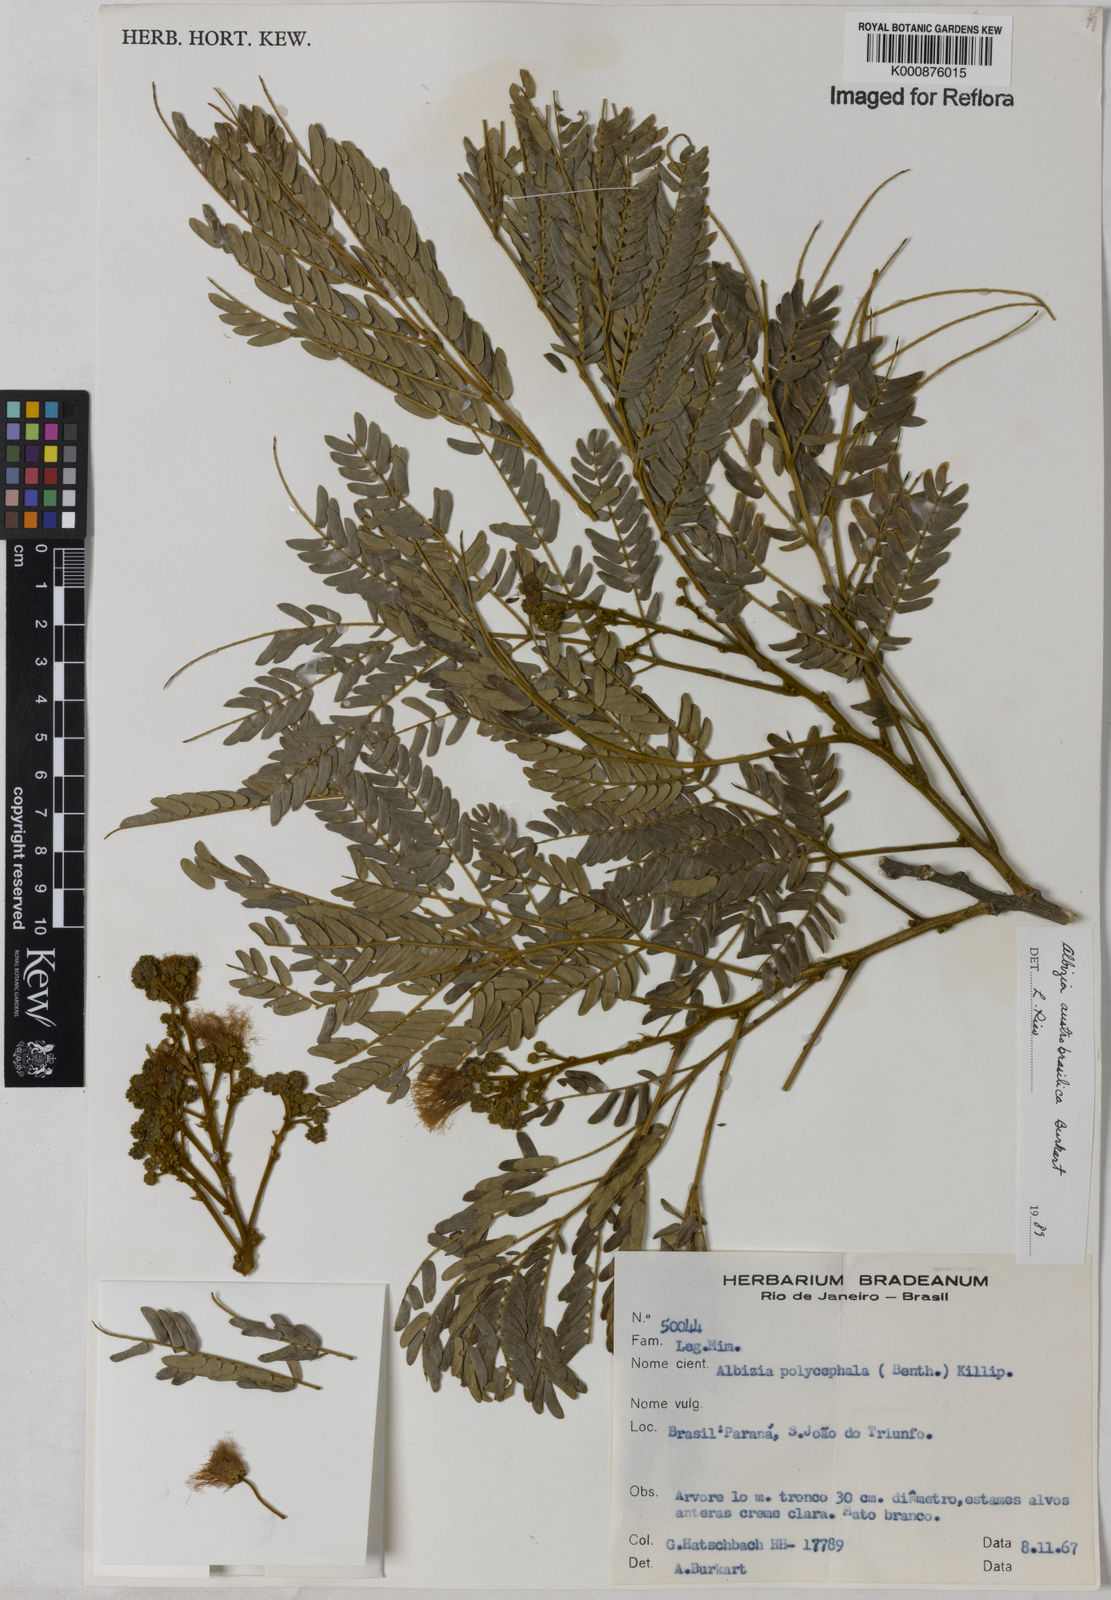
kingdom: Plantae
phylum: Tracheophyta
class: Magnoliopsida
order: Fabales
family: Fabaceae
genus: Albizia
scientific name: Albizia edwallii
